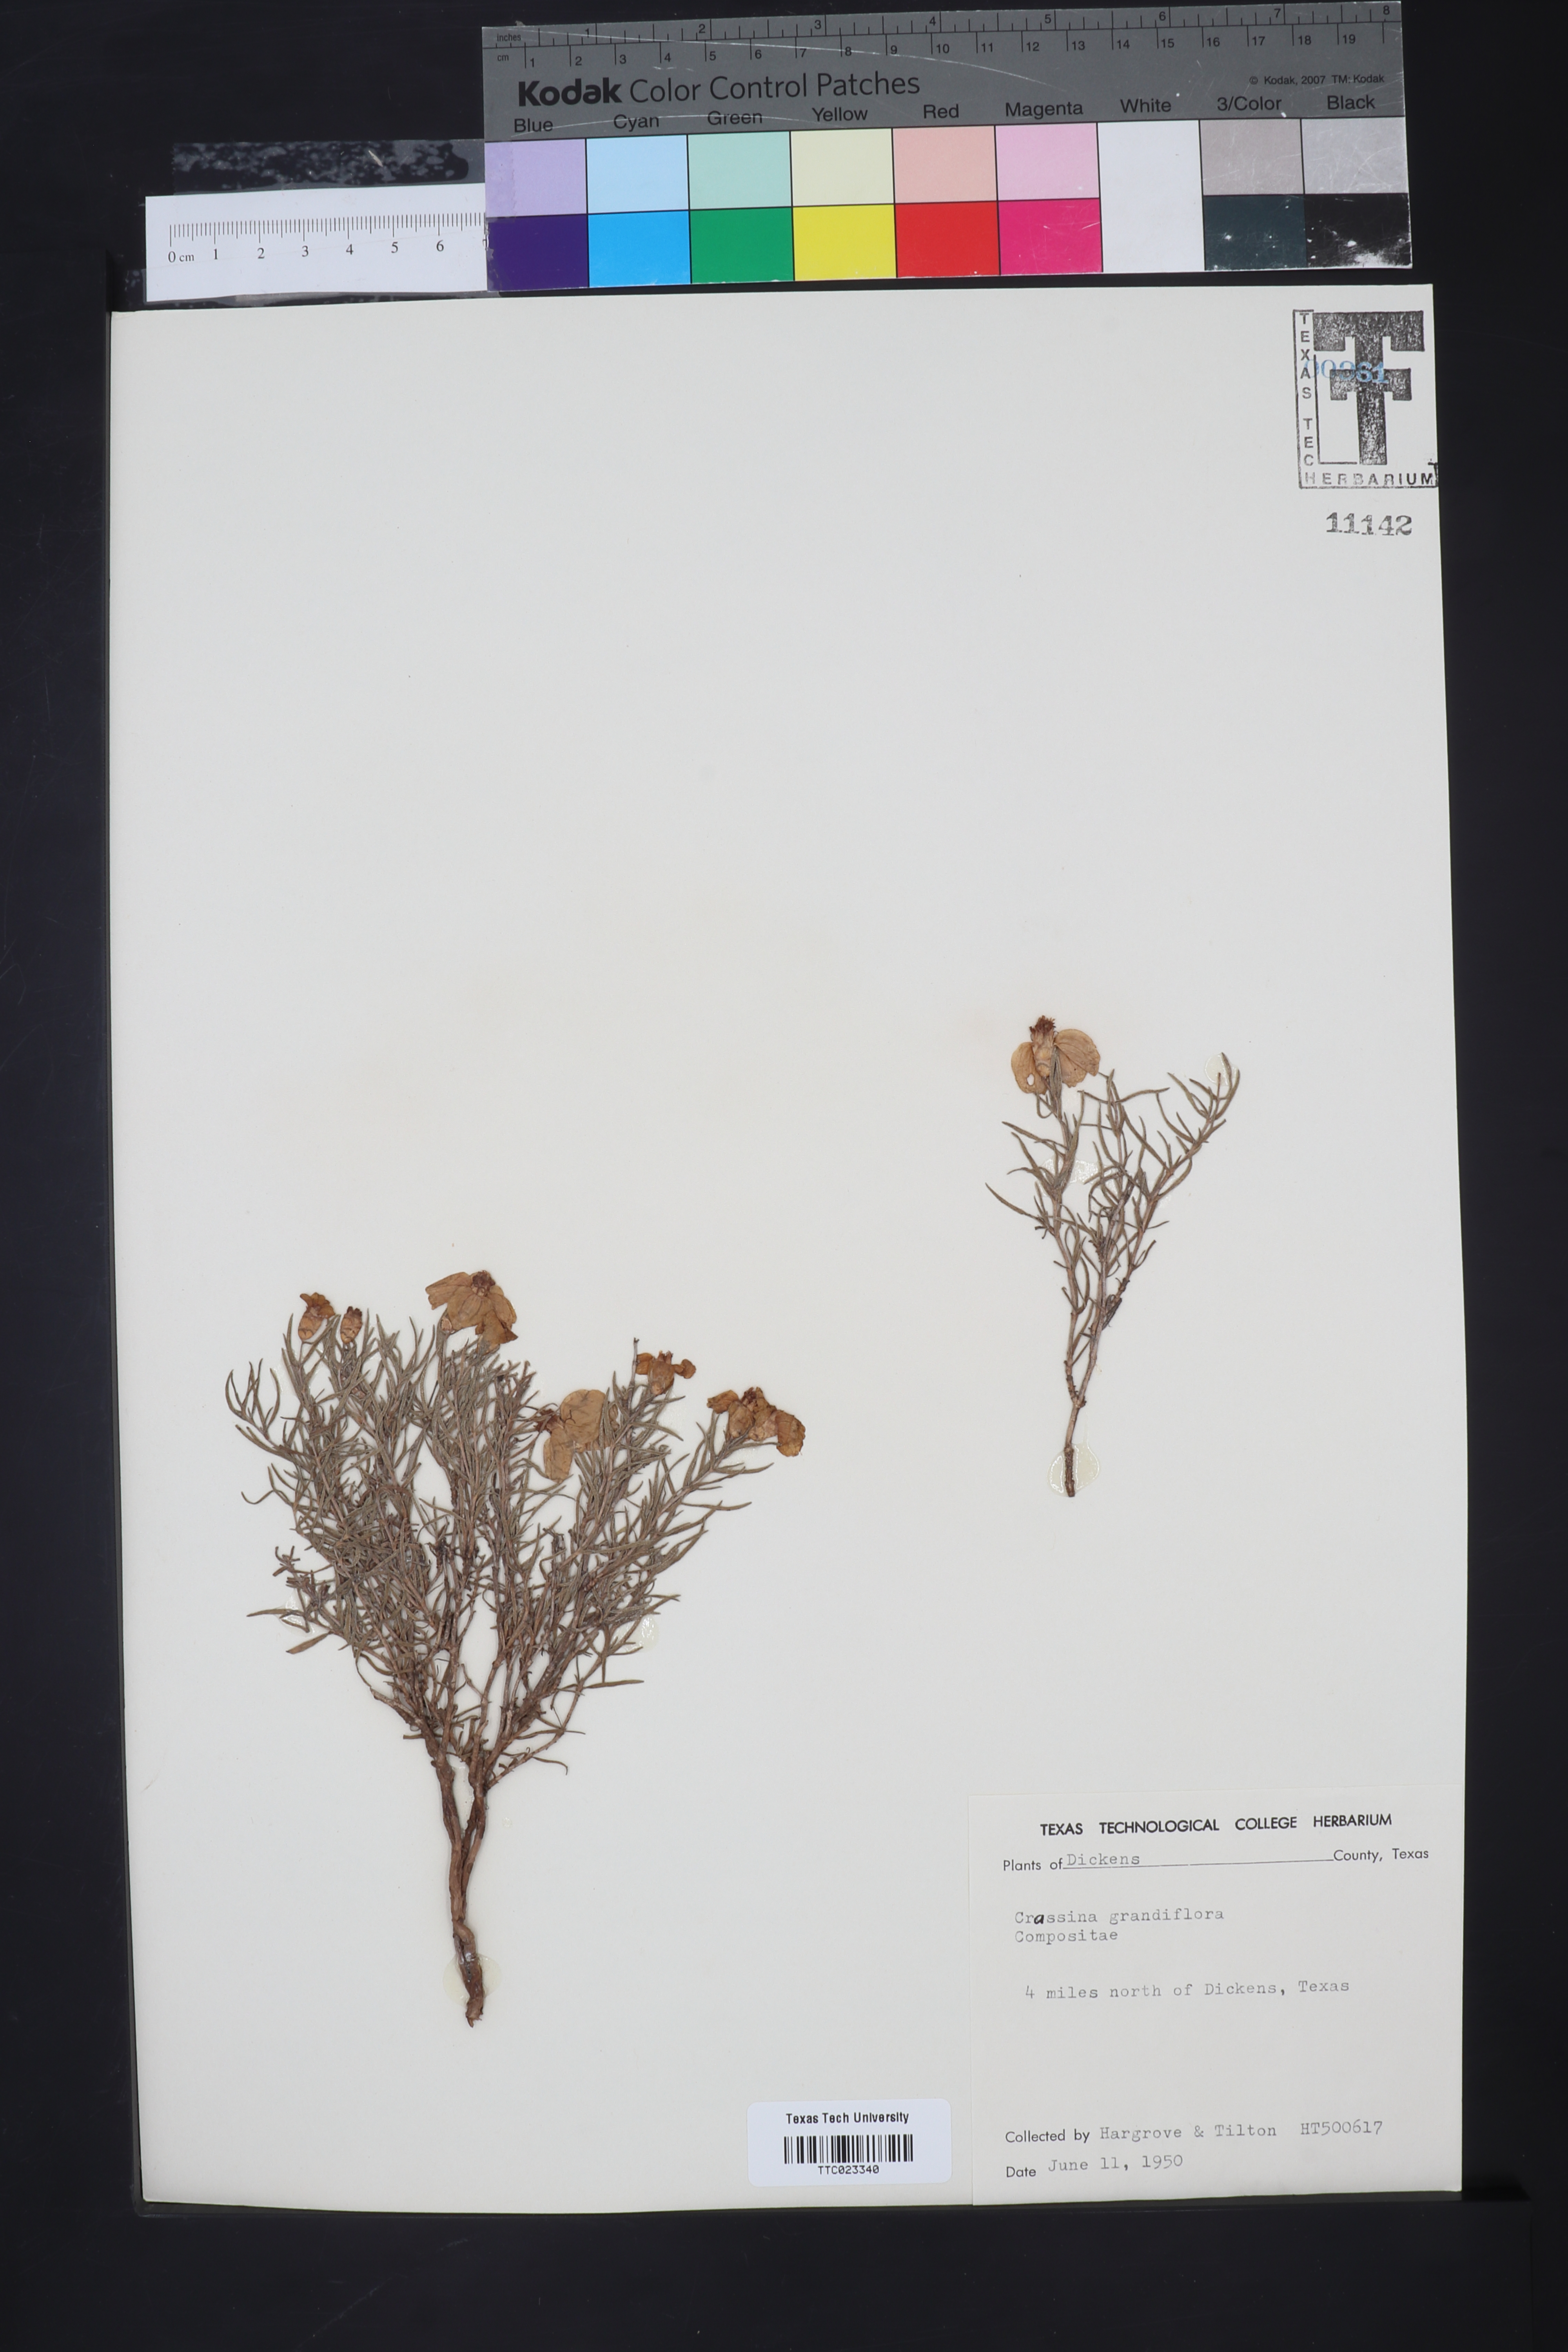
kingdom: Plantae
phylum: Tracheophyta
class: Magnoliopsida
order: Asterales
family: Asteraceae
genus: Zinnia
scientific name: Zinnia grandiflora
